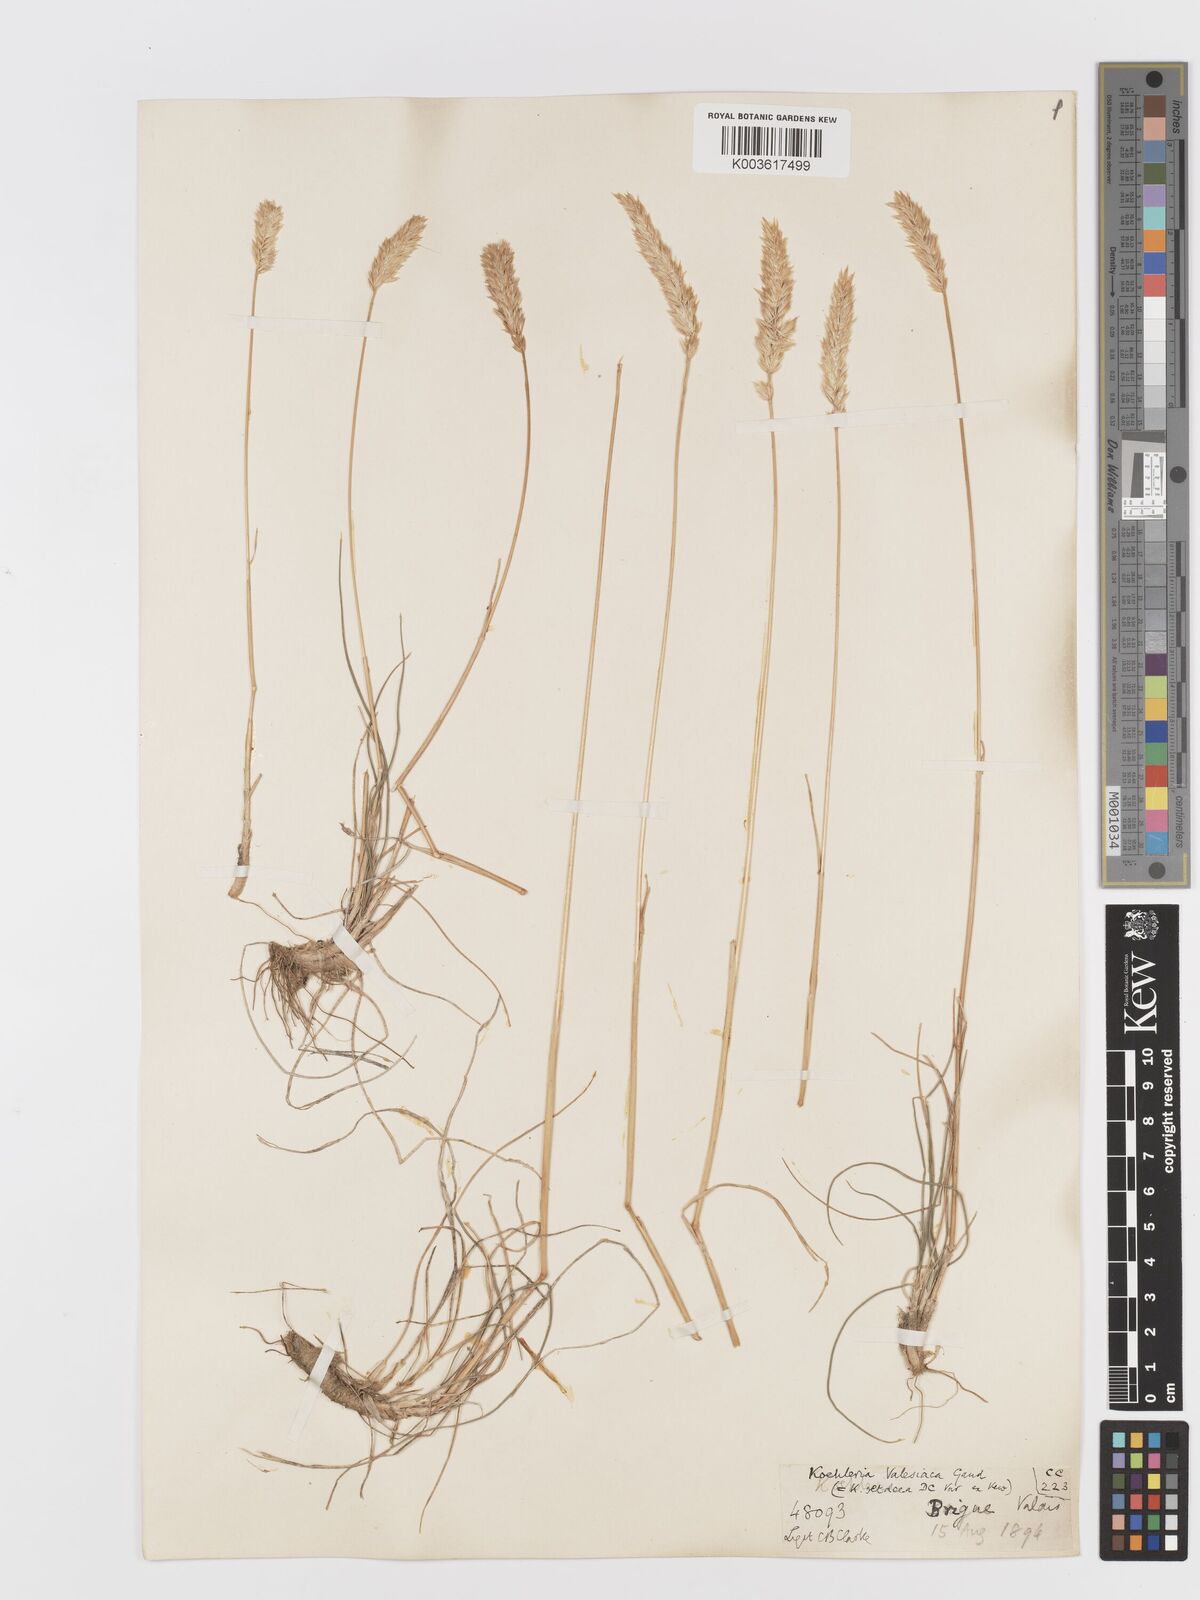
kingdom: Plantae
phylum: Tracheophyta
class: Liliopsida
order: Poales
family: Poaceae
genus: Koeleria
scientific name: Koeleria
